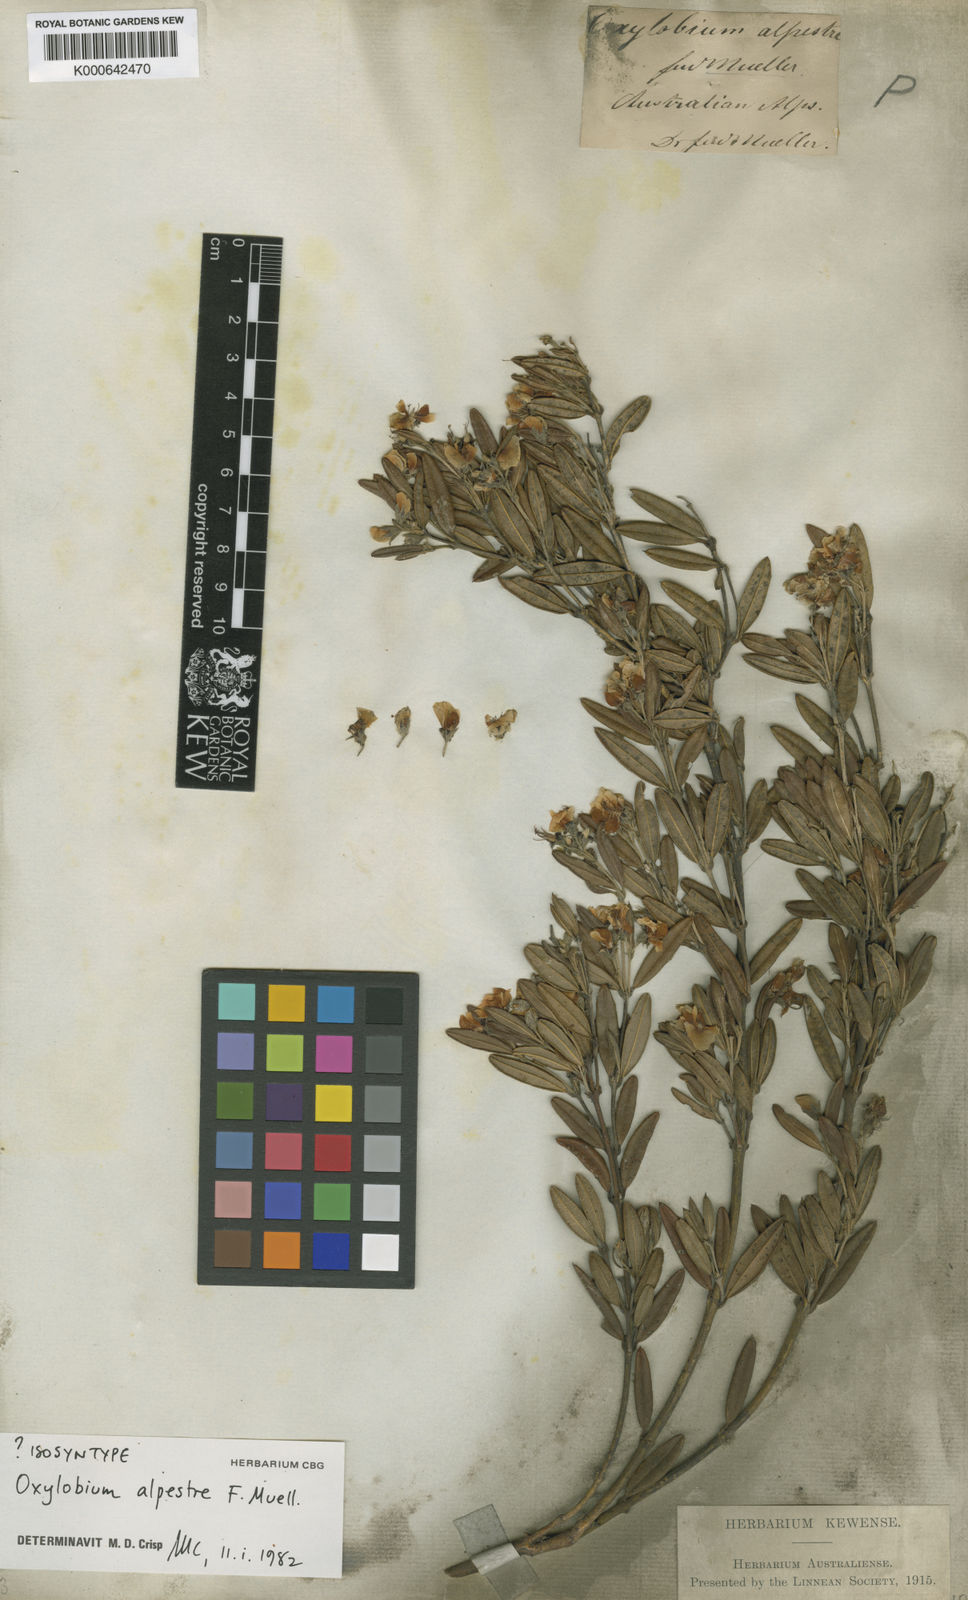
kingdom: Plantae
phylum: Tracheophyta
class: Magnoliopsida
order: Fabales
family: Fabaceae
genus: Podolobium
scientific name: Podolobium alpestre
